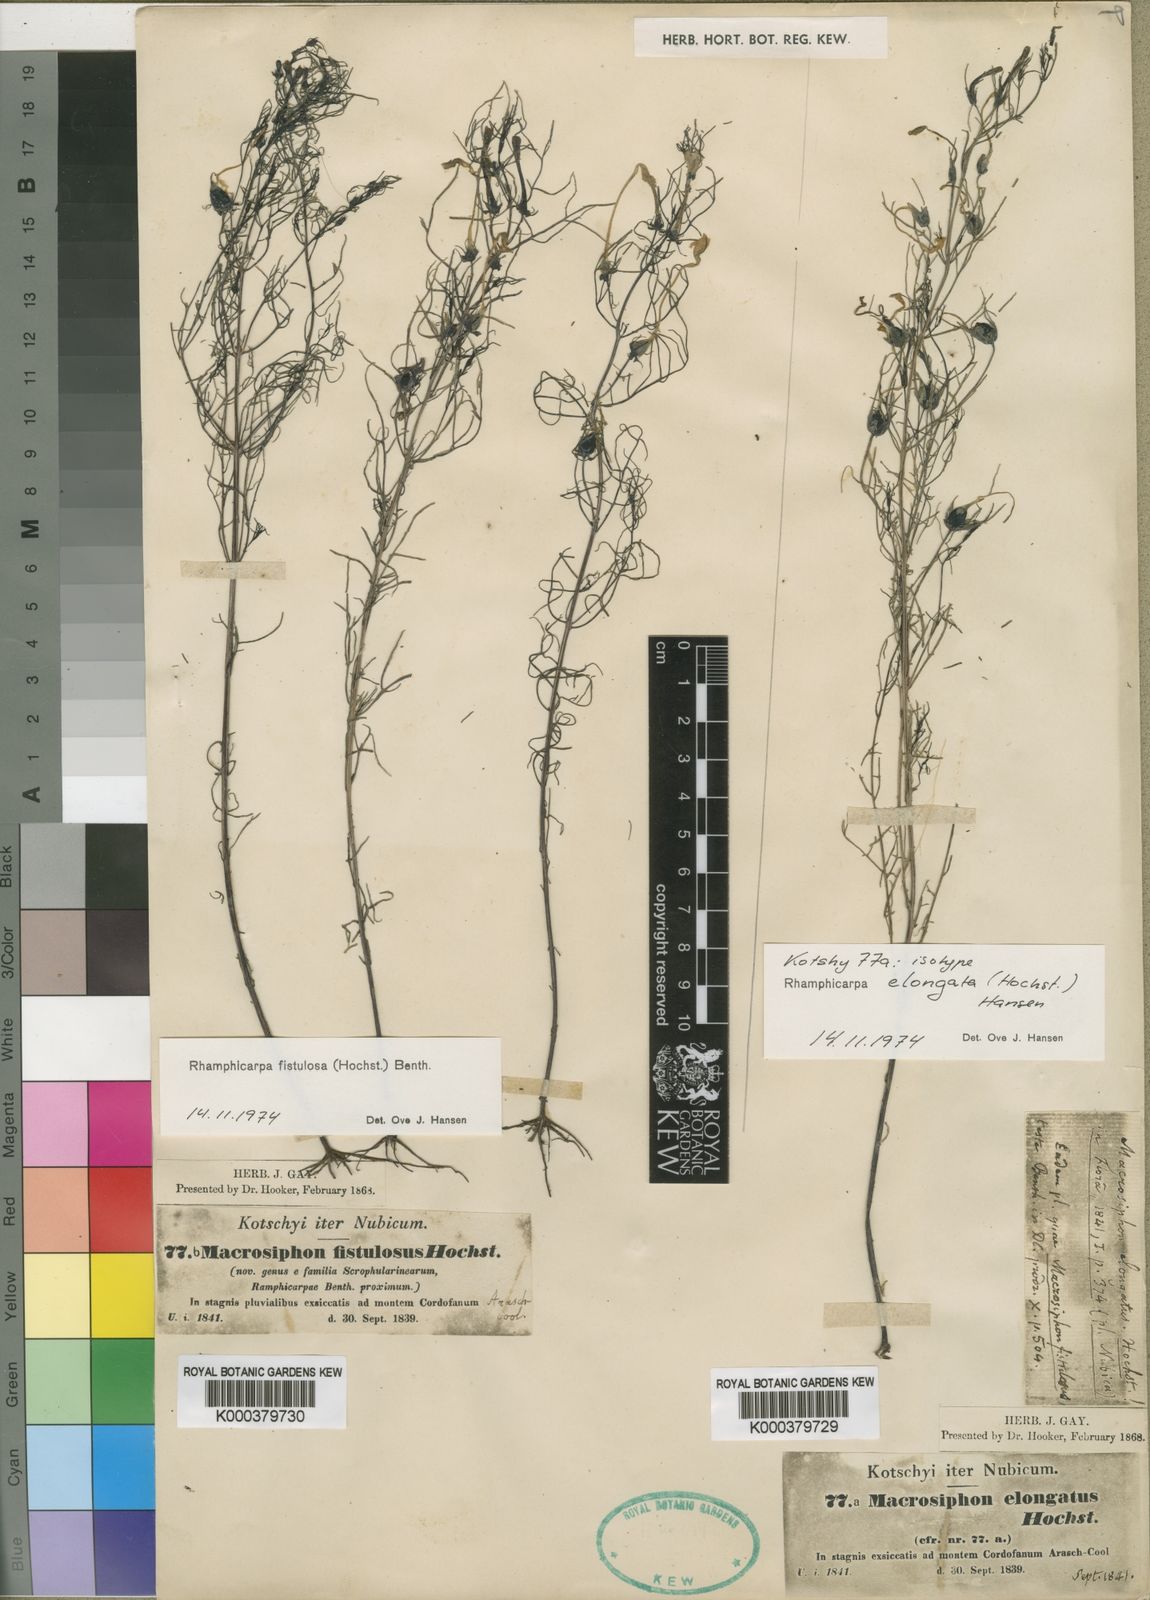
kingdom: Plantae
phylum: Tracheophyta
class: Magnoliopsida
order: Lamiales
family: Orobanchaceae
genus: Rhamphicarpa
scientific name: Rhamphicarpa fistulosa
